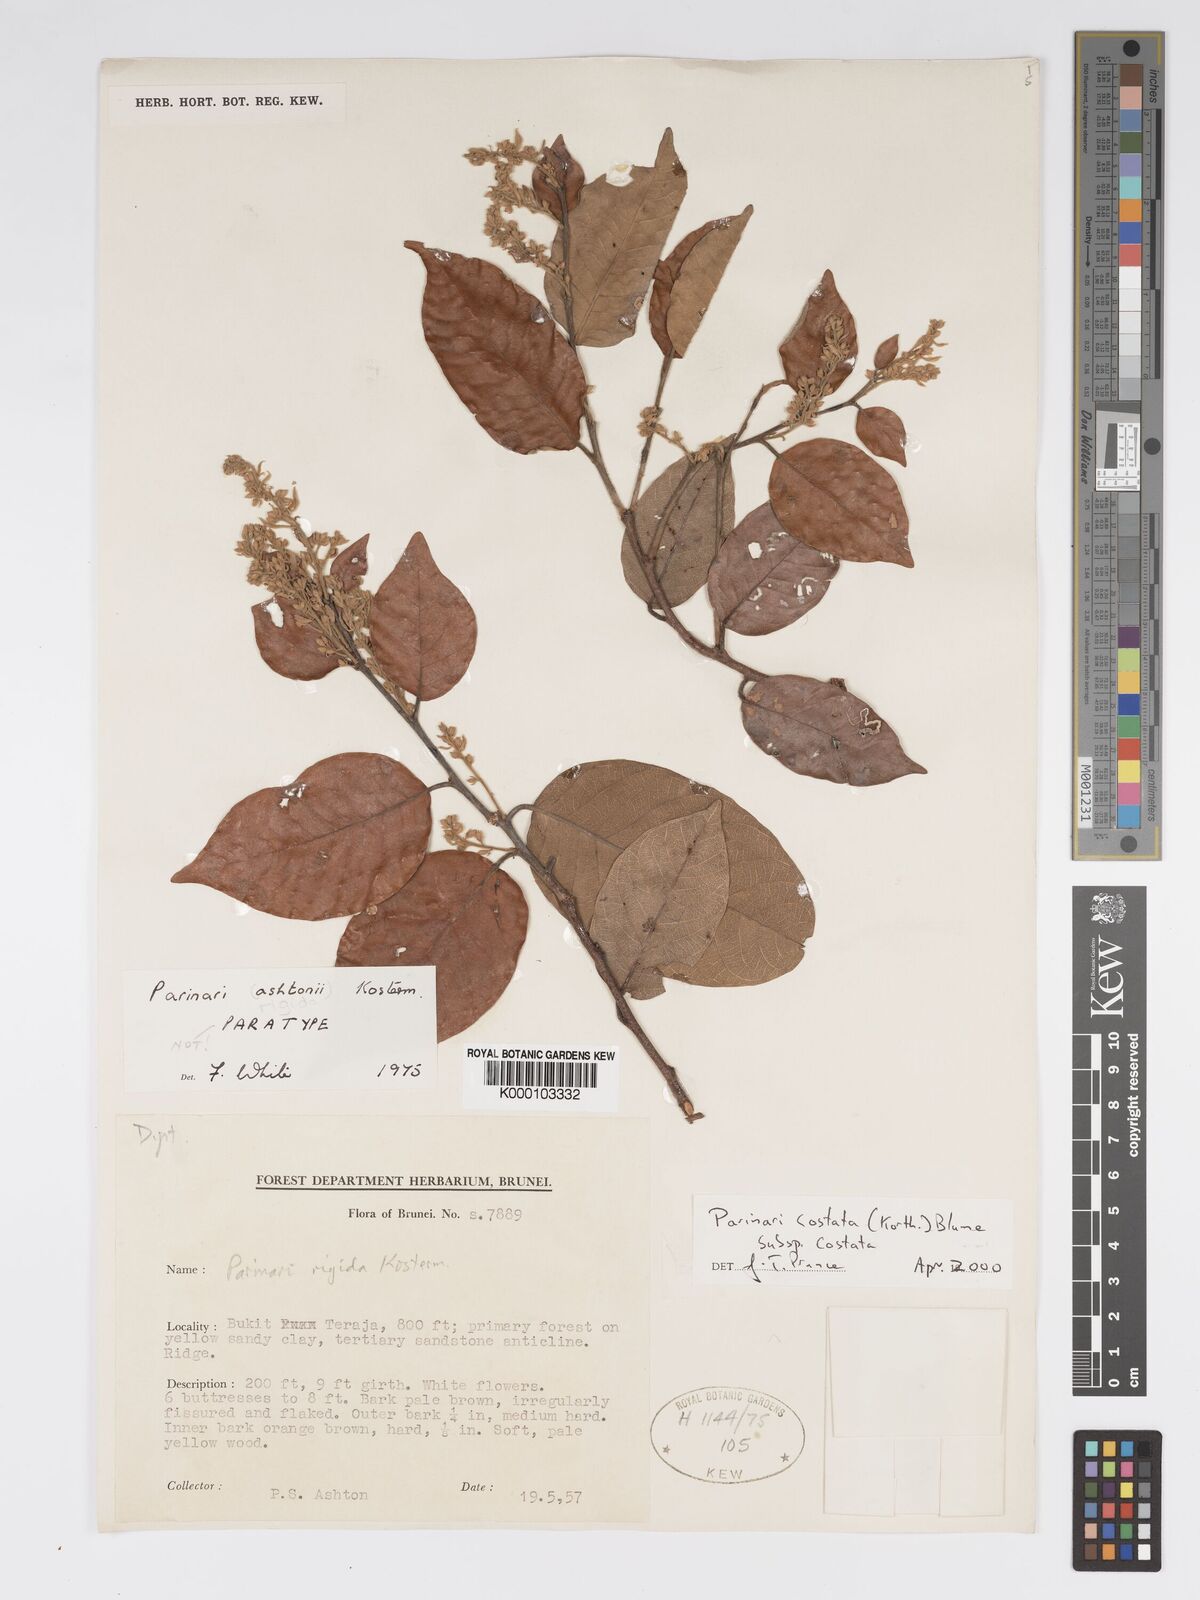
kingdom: Plantae
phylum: Tracheophyta
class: Magnoliopsida
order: Malpighiales
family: Chrysobalanaceae
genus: Parinari
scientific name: Parinari costata
